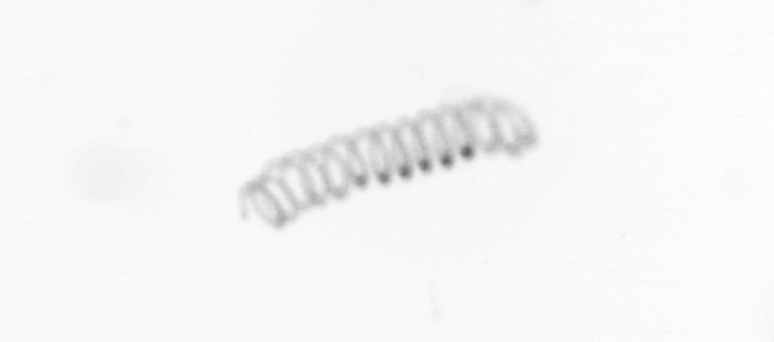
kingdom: Chromista
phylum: Ochrophyta
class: Bacillariophyceae
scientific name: Bacillariophyceae
